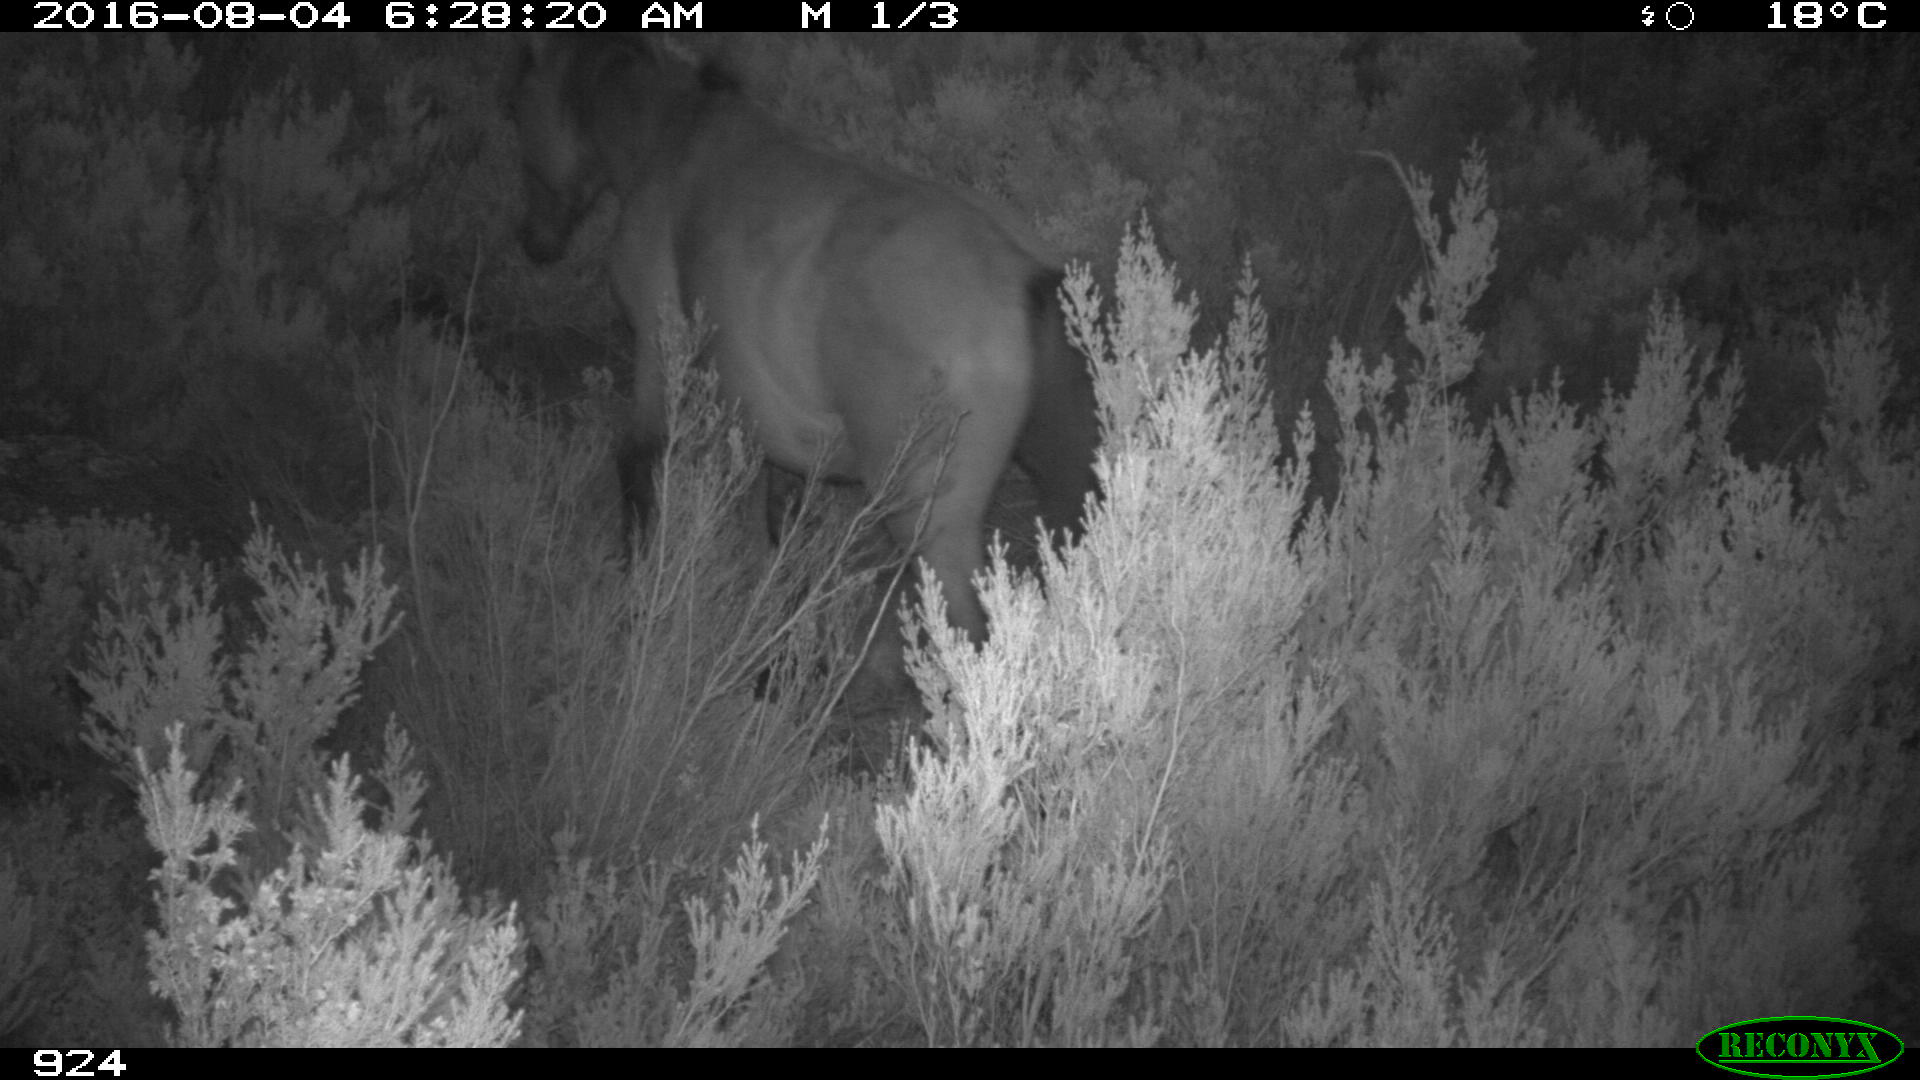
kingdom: Animalia
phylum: Chordata
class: Mammalia
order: Perissodactyla
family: Equidae
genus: Equus
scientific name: Equus caballus
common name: Horse
